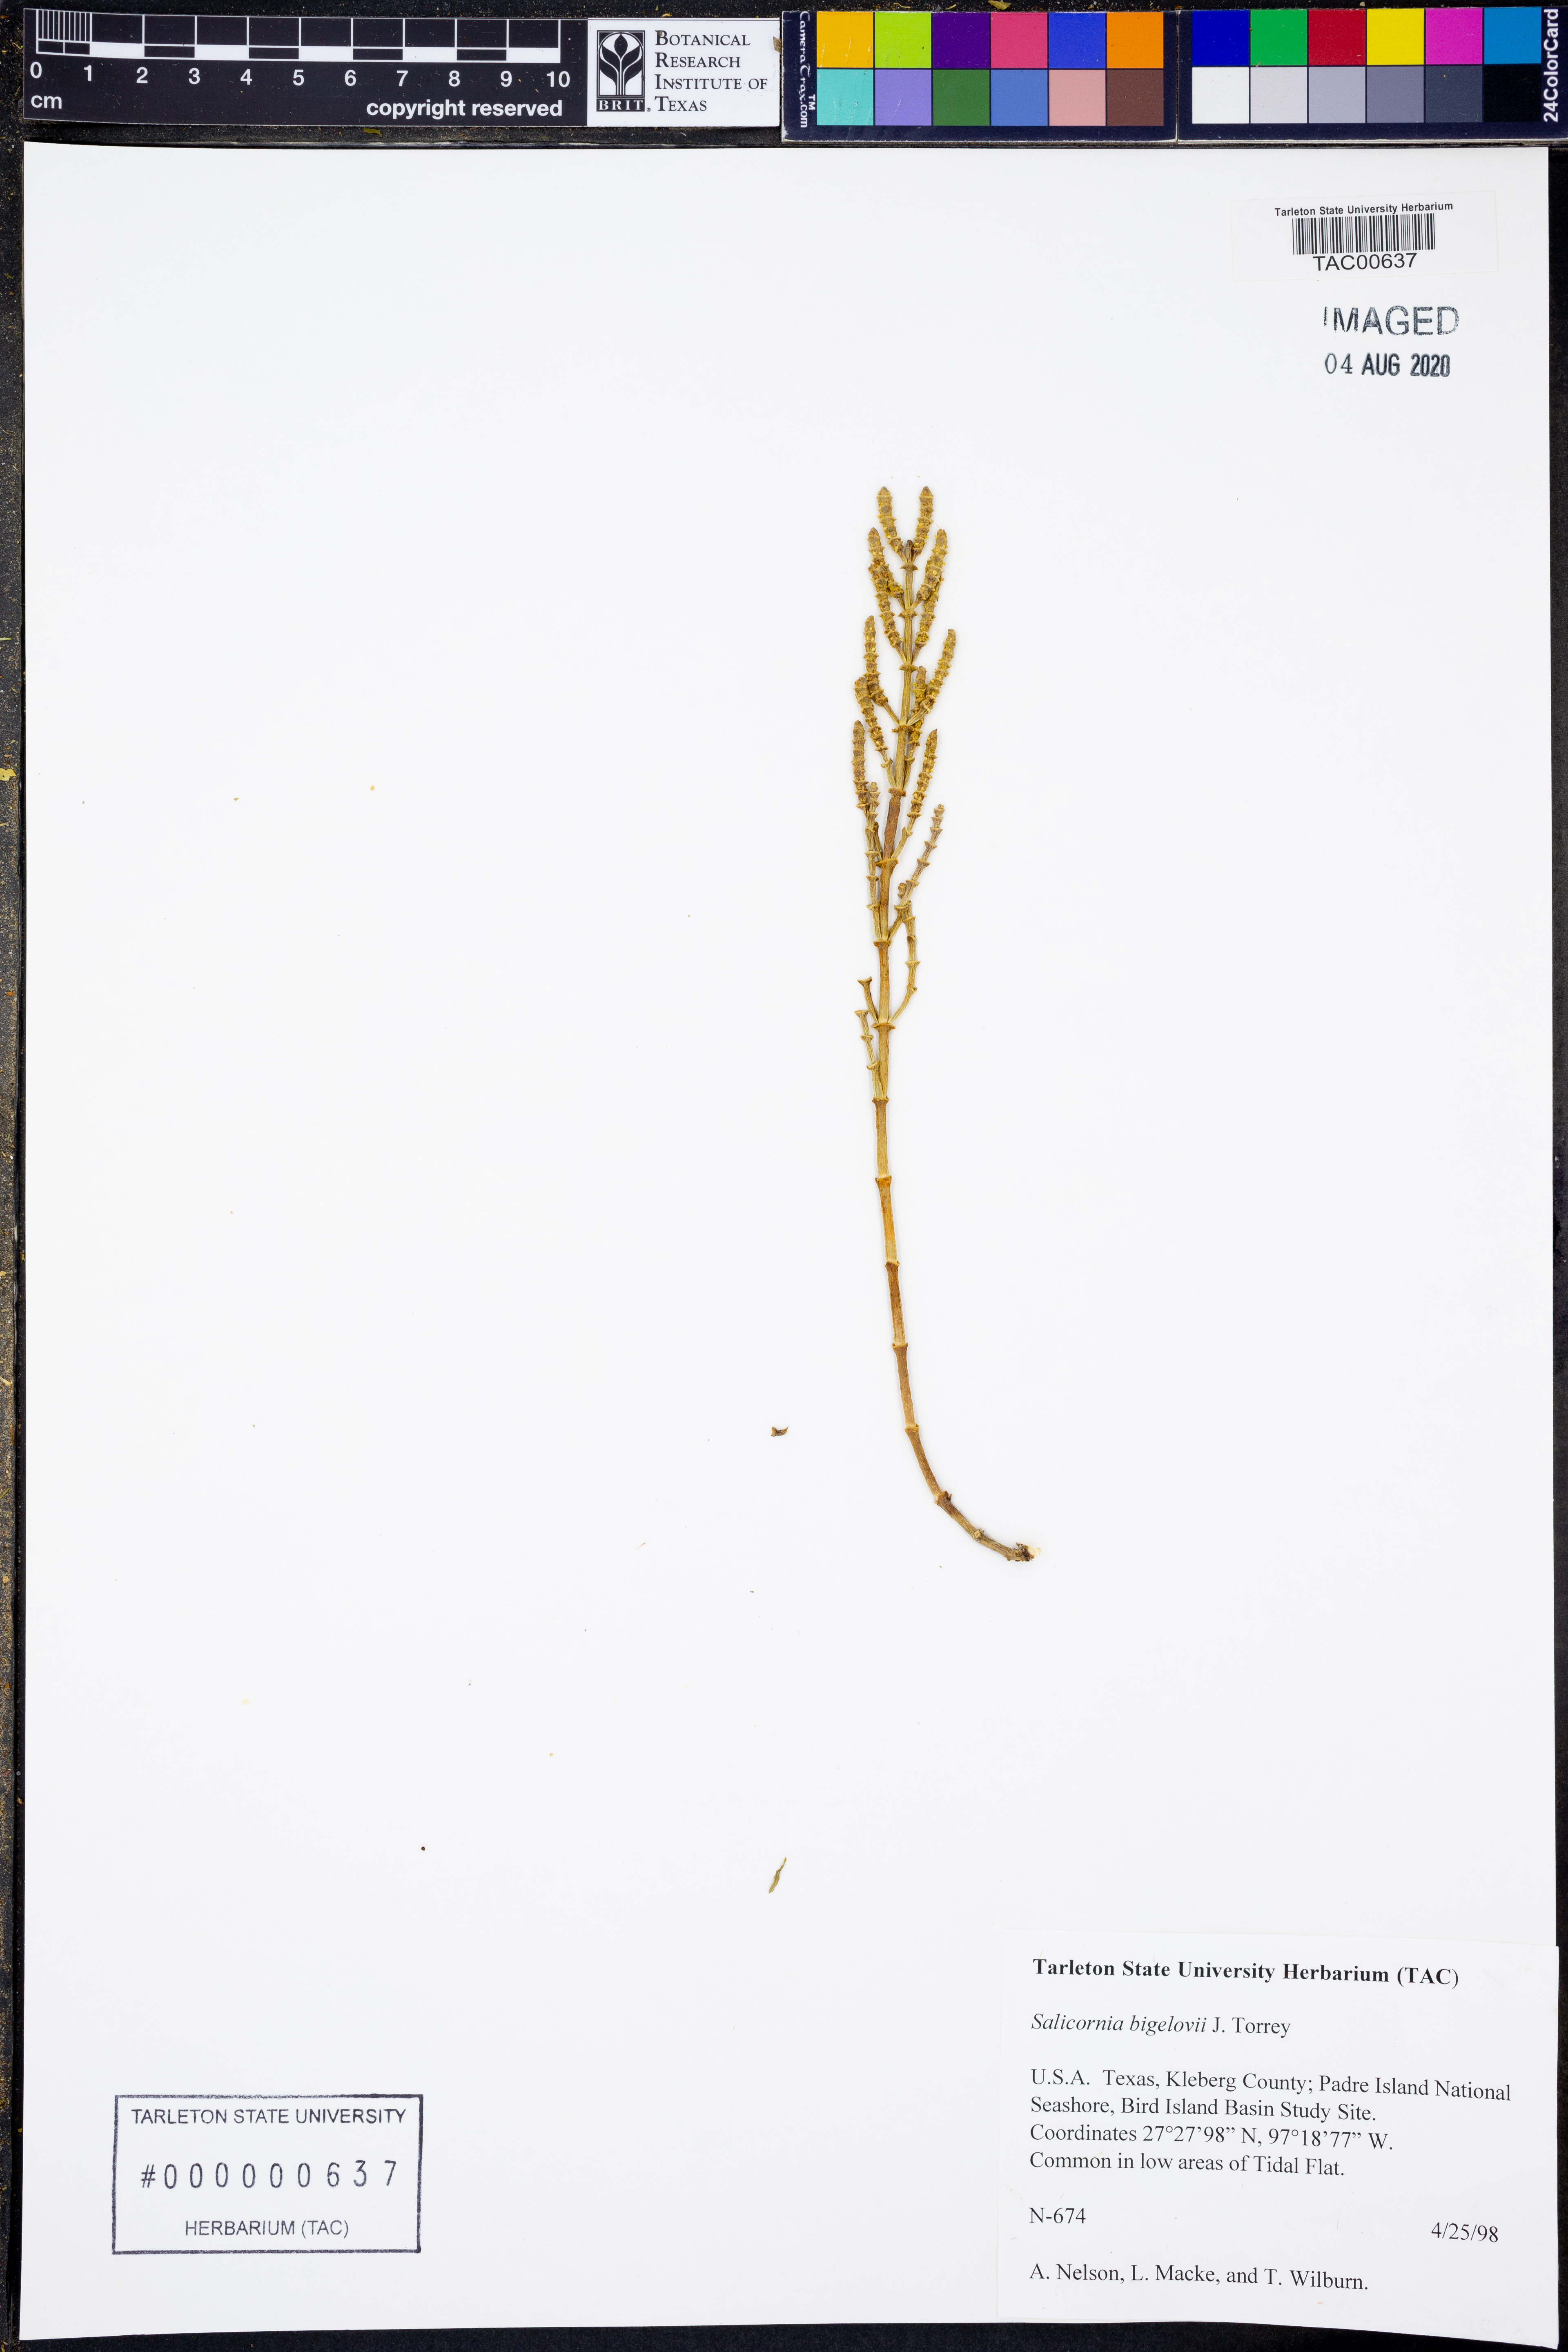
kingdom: Plantae
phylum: Tracheophyta
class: Magnoliopsida
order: Caryophyllales
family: Amaranthaceae
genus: Salicornia
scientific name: Salicornia bigelovii
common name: Dwarf glasswort
